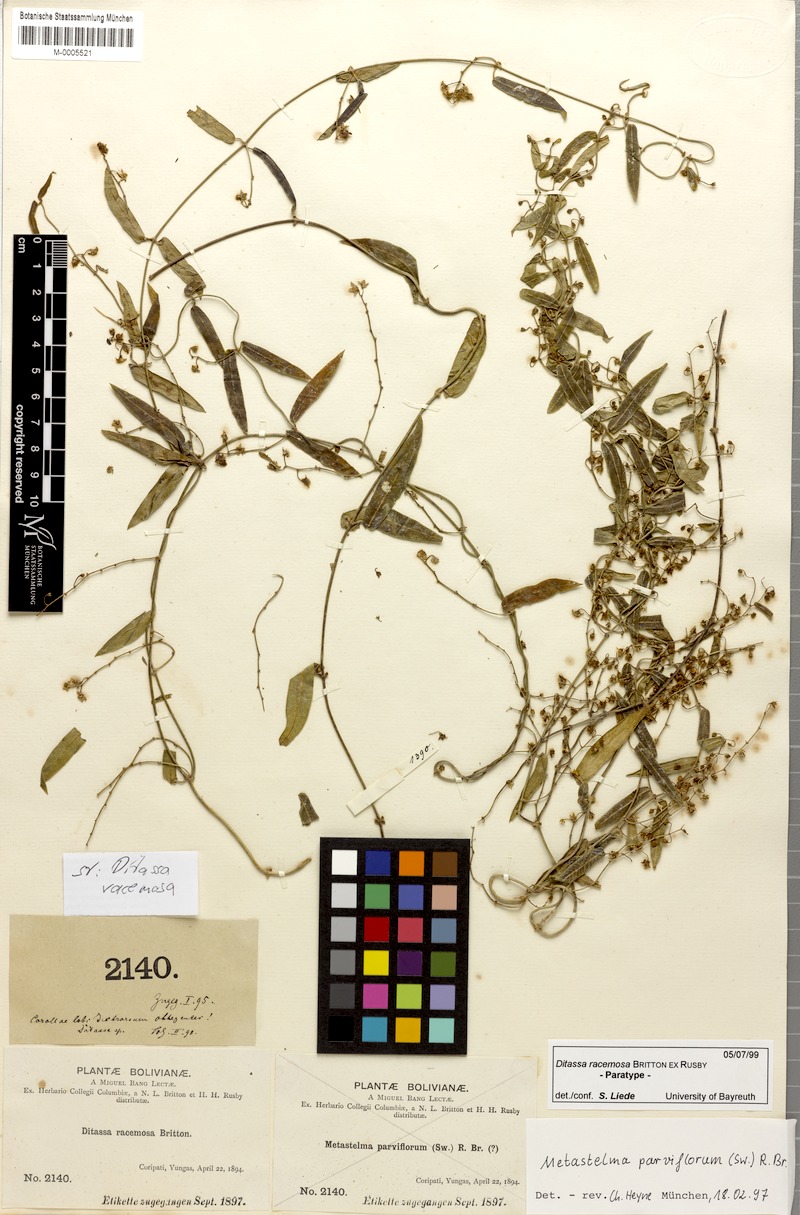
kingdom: Plantae
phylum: Tracheophyta
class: Magnoliopsida
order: Gentianales
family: Apocynaceae
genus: Ditassa
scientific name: Ditassa racemosa
